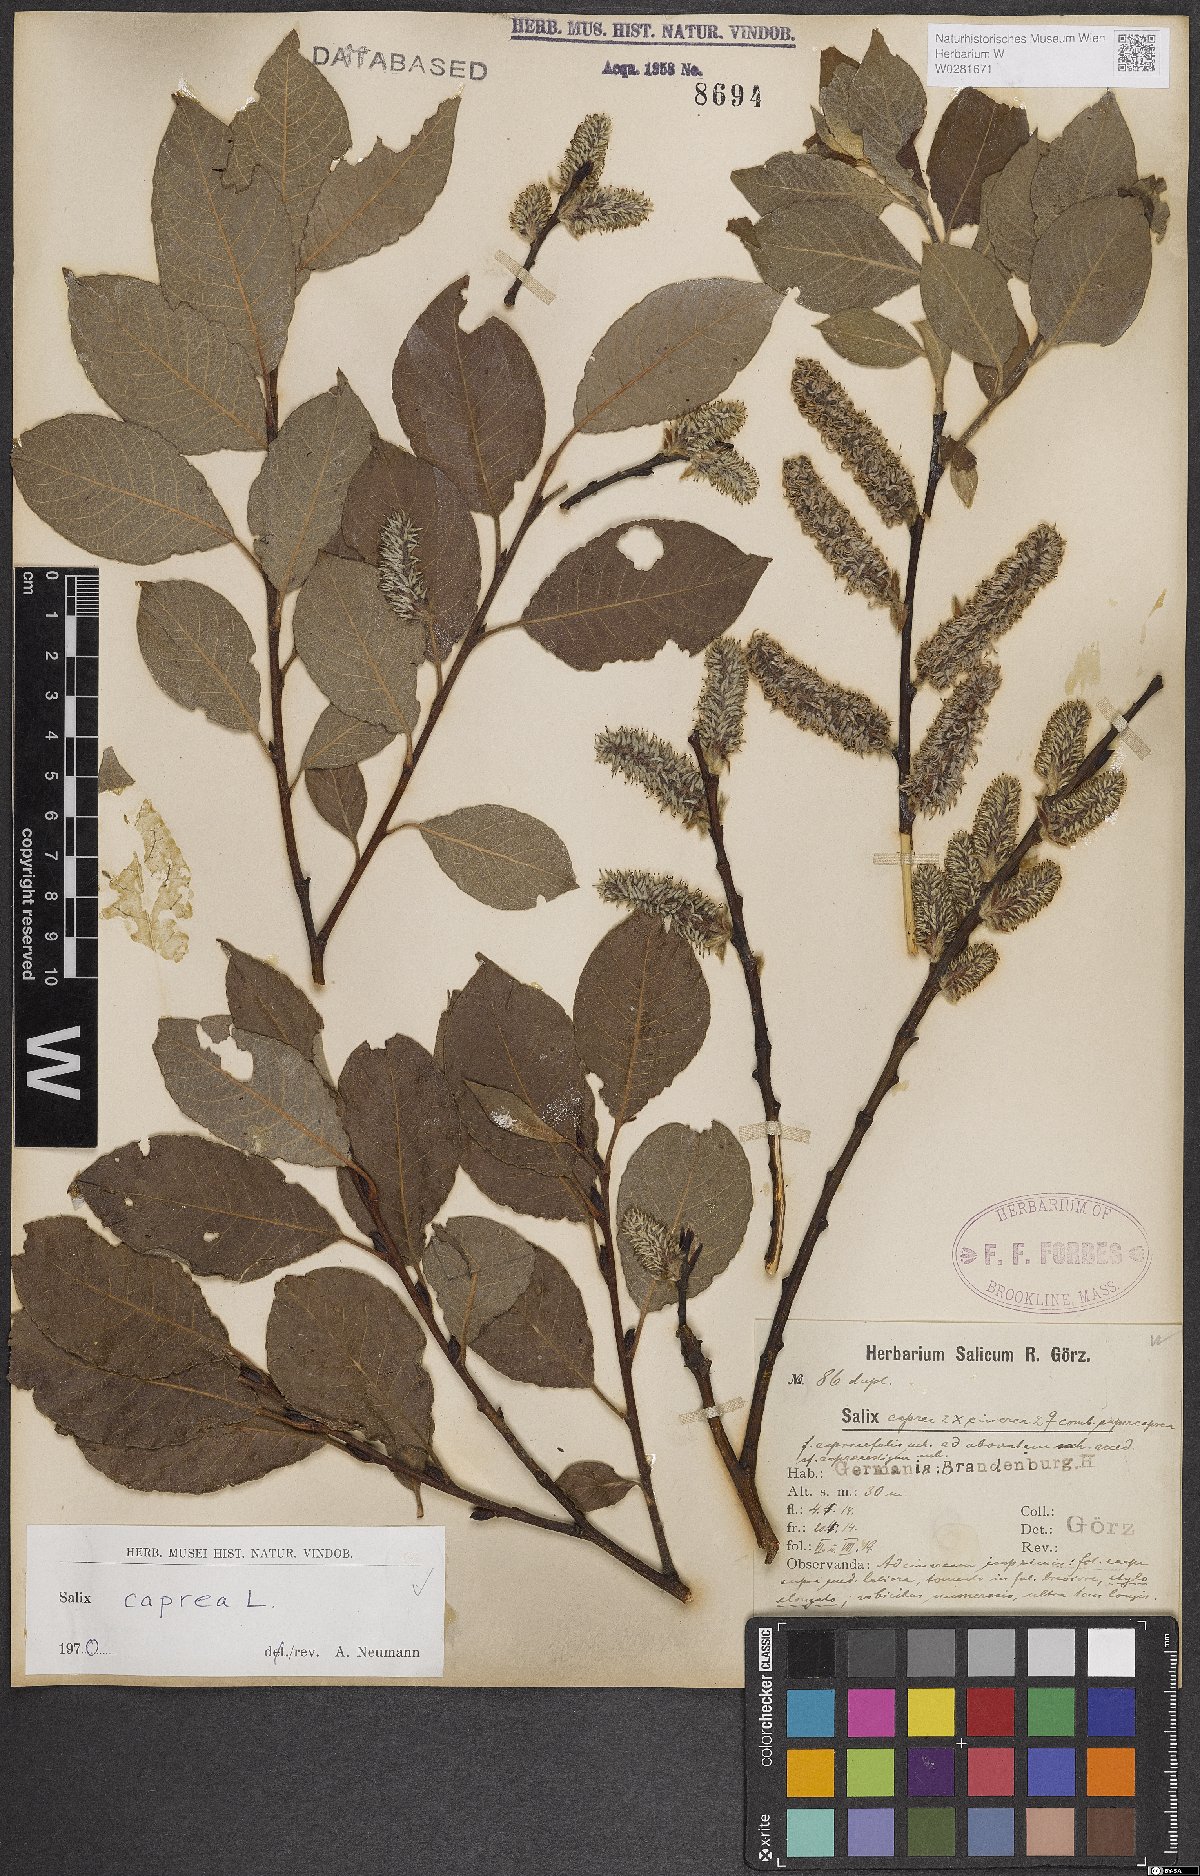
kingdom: Plantae
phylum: Tracheophyta
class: Magnoliopsida
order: Malpighiales
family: Salicaceae
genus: Salix
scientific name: Salix caprea
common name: Goat willow
